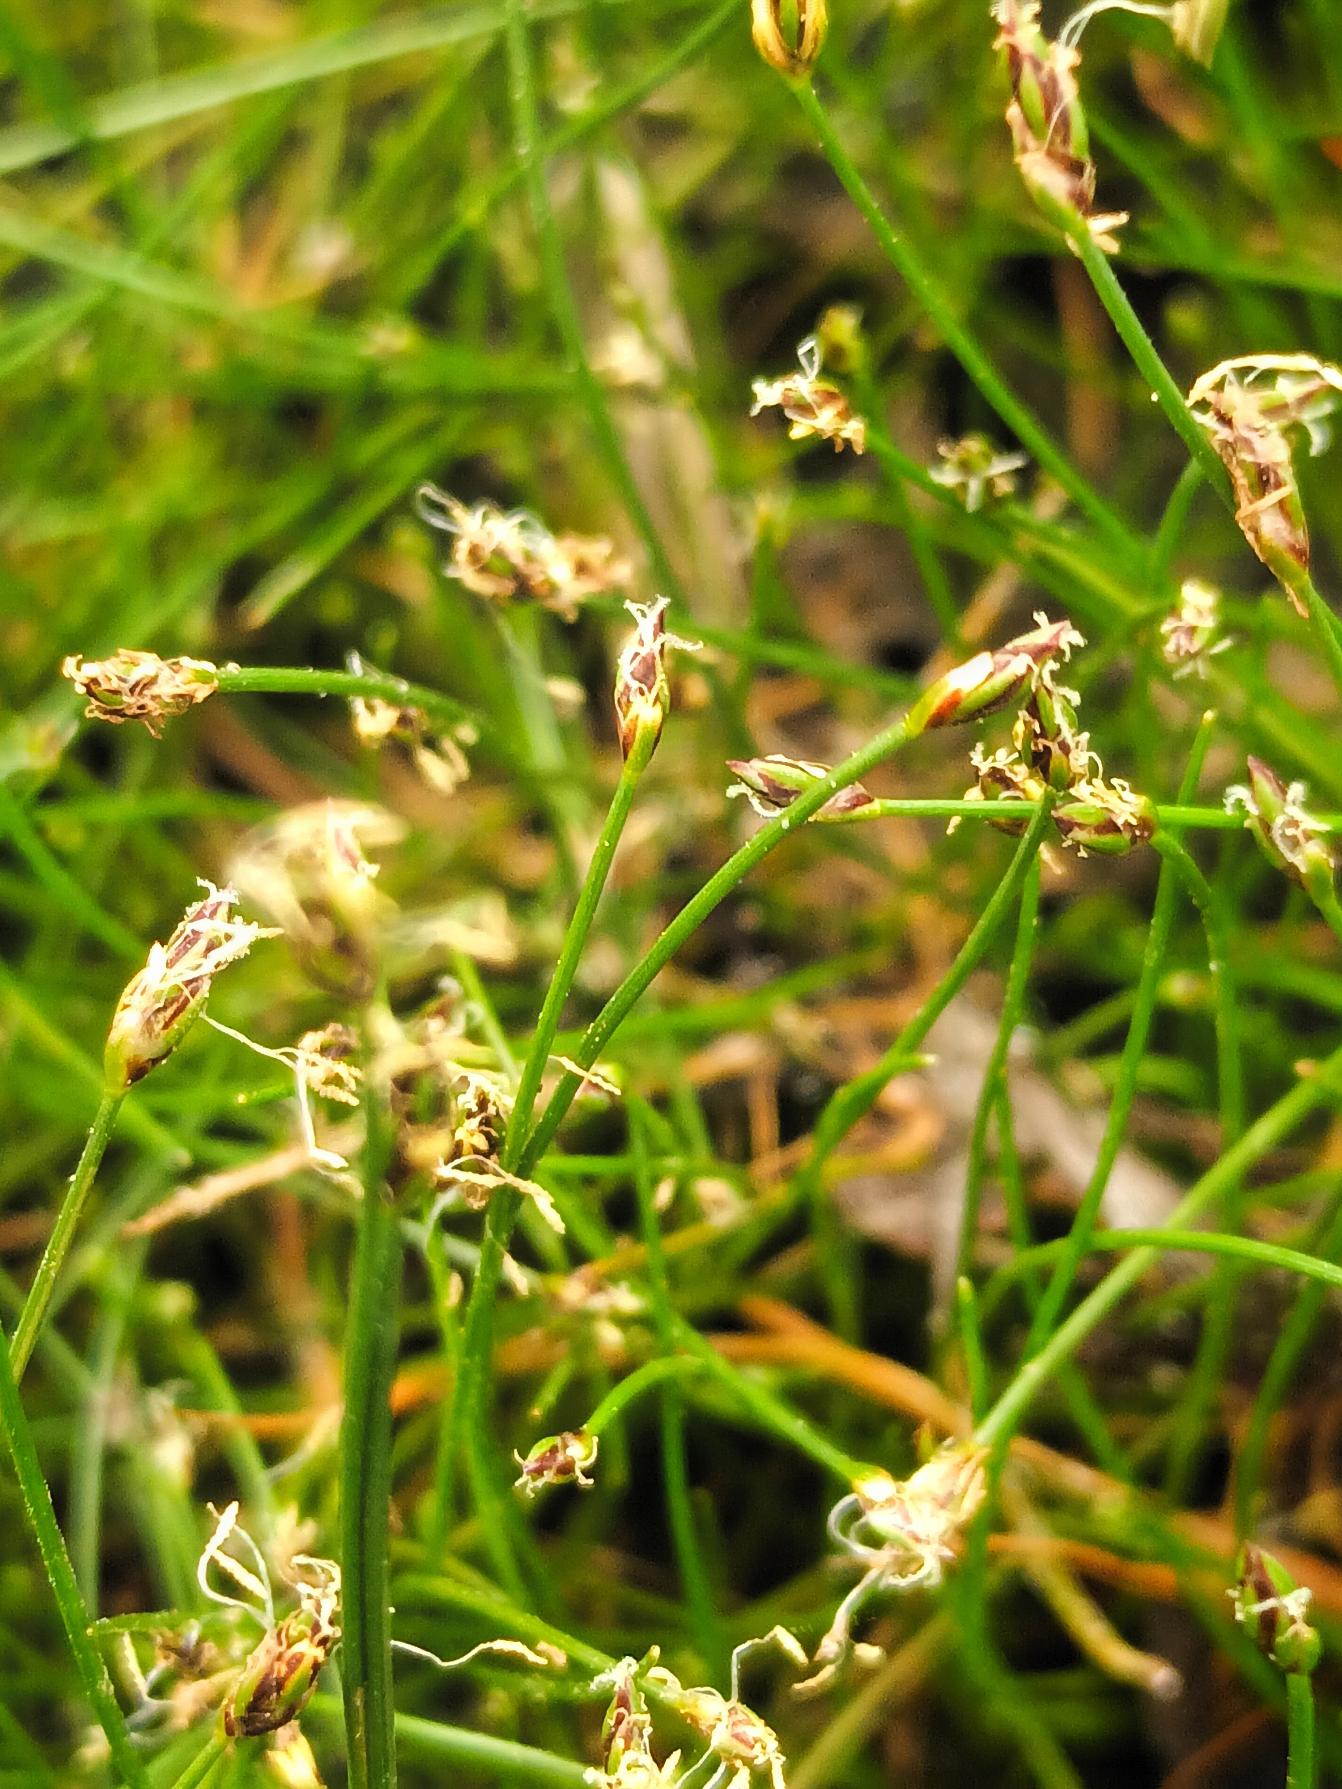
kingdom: Plantae
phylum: Tracheophyta
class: Liliopsida
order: Poales
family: Cyperaceae
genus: Eleocharis
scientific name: Eleocharis acicularis
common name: Nåle-sumpstrå
